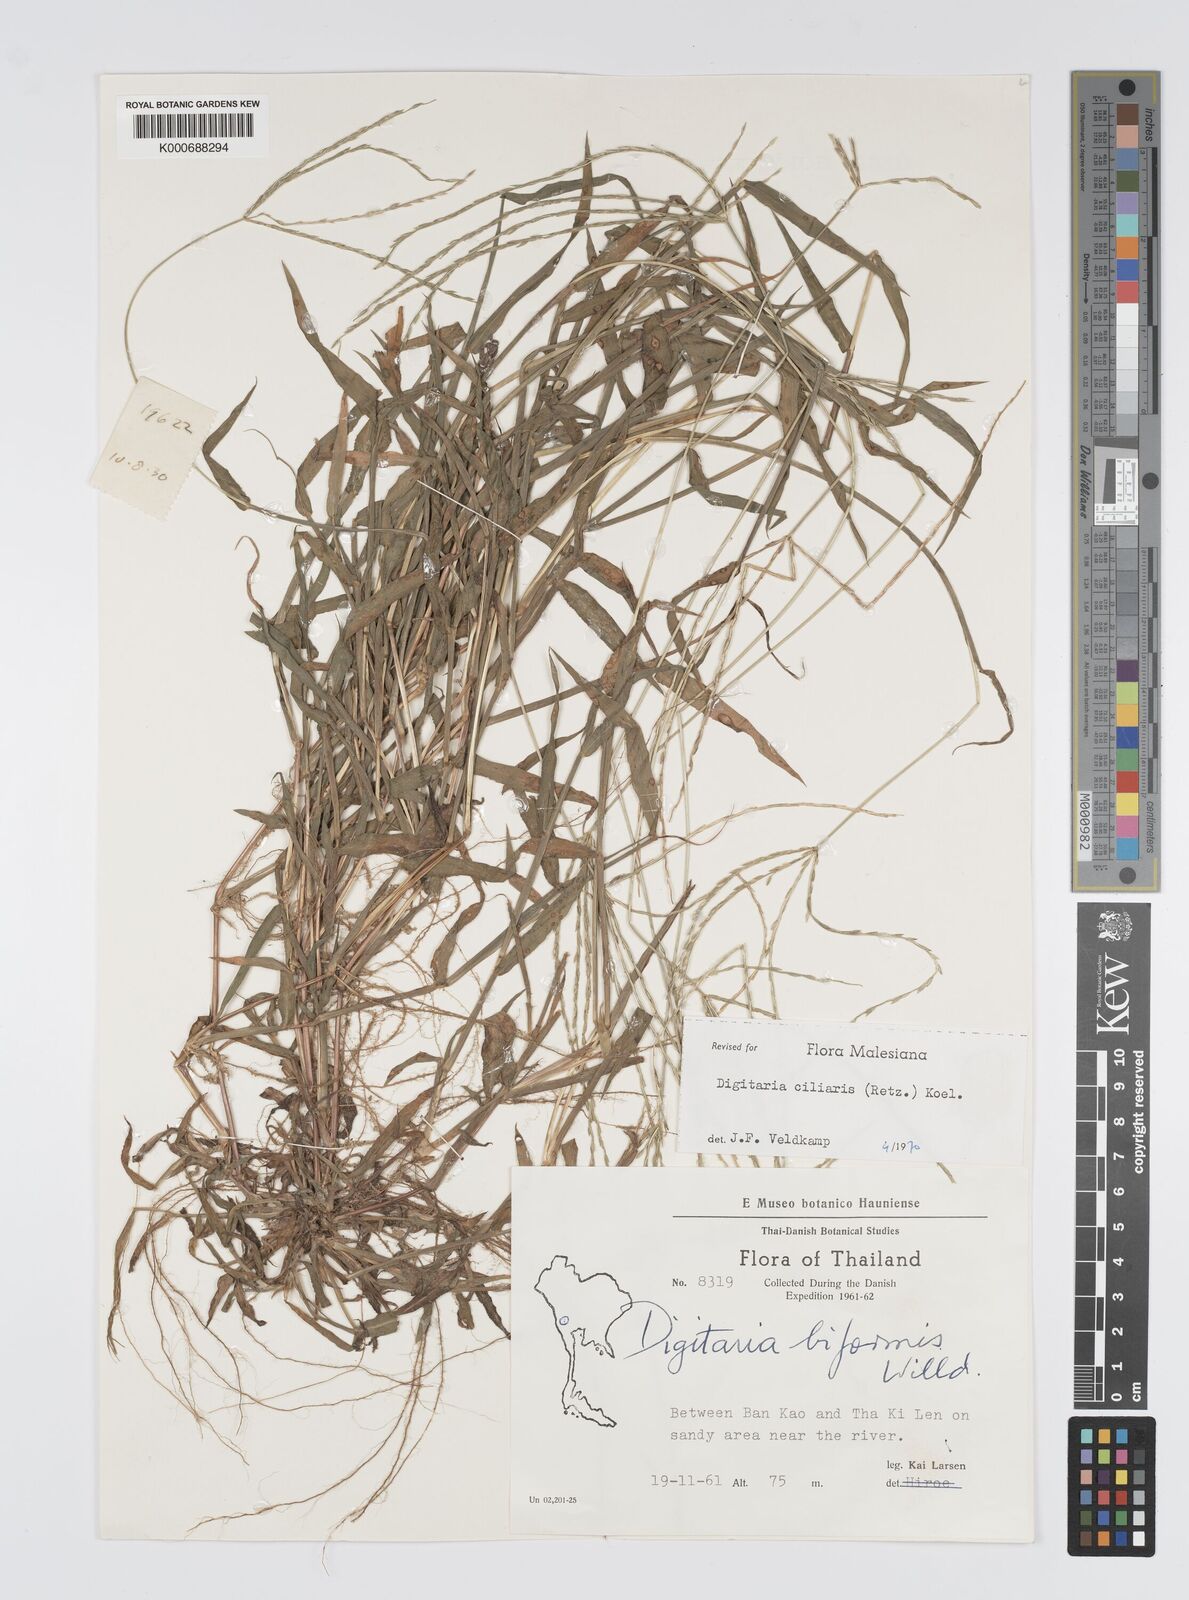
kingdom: Plantae
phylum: Tracheophyta
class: Liliopsida
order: Poales
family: Poaceae
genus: Digitaria
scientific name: Digitaria ciliaris
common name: Tropical finger-grass
